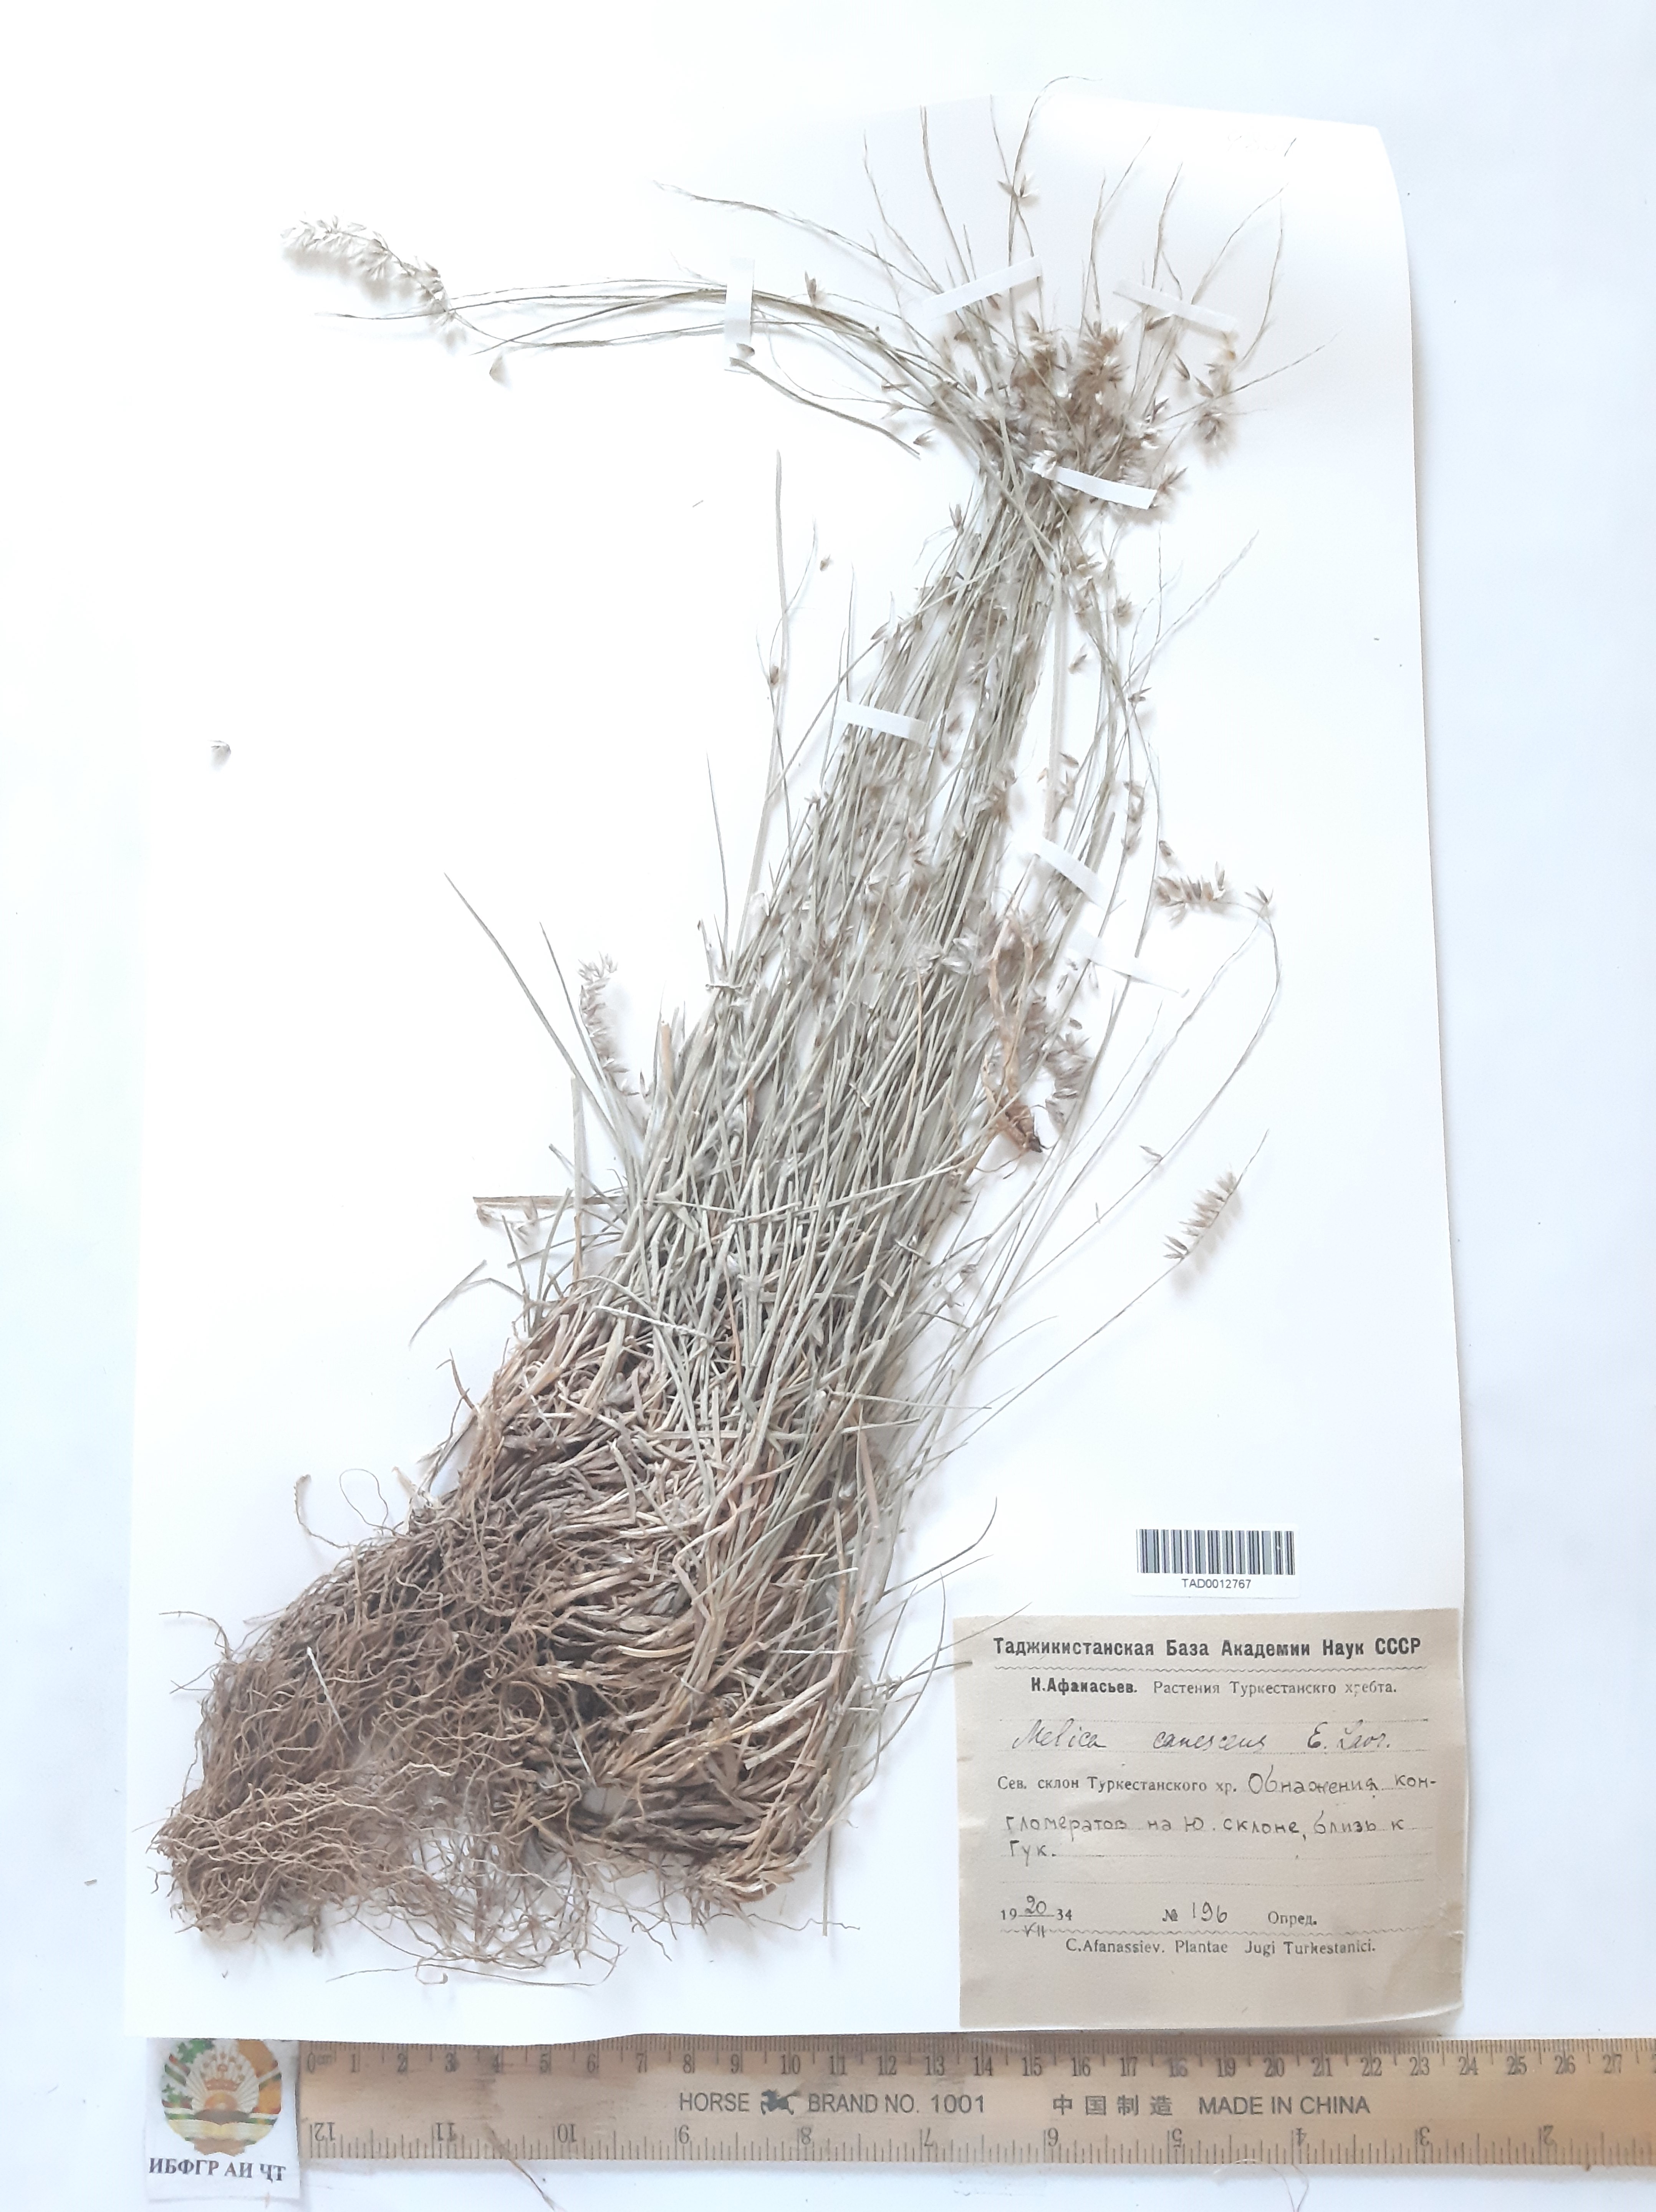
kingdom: Plantae
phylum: Tracheophyta
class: Liliopsida
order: Poales
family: Poaceae
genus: Melica
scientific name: Melica persica
